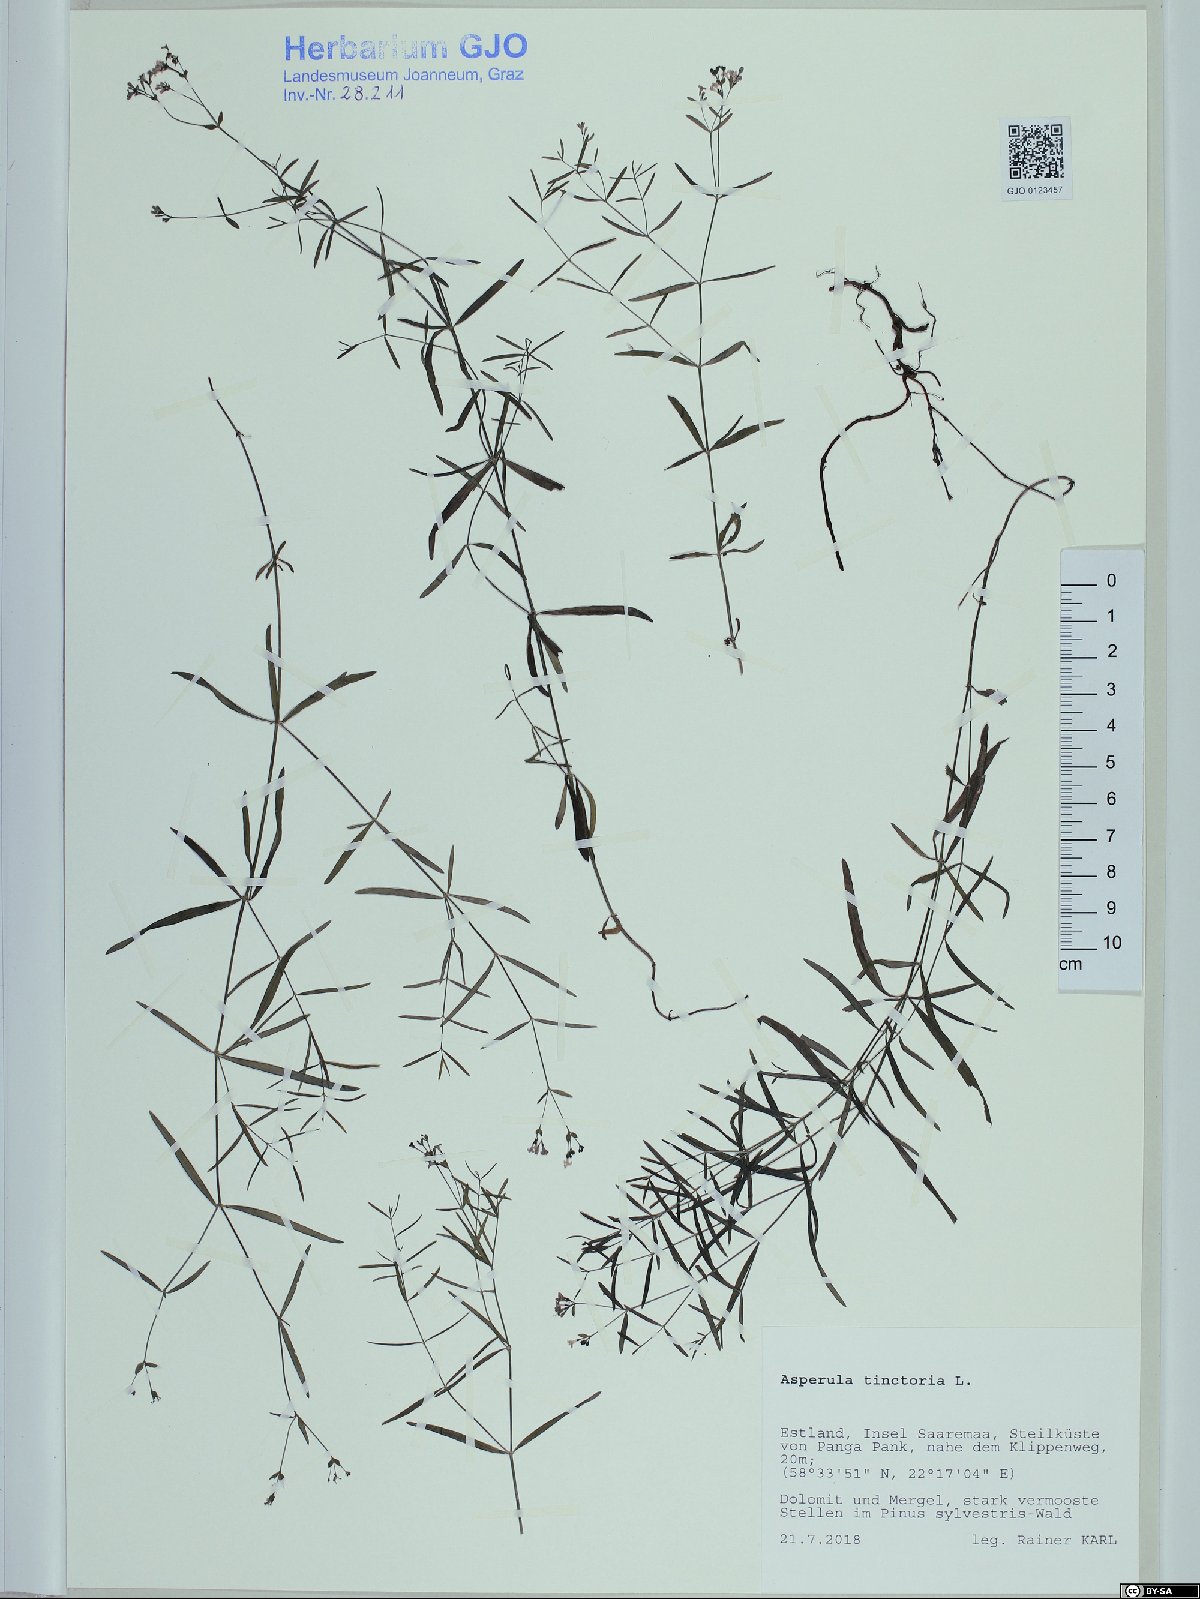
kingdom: Plantae
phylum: Tracheophyta
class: Magnoliopsida
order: Gentianales
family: Rubiaceae
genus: Asperula
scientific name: Asperula tinctoria
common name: Dyer's woodruff
